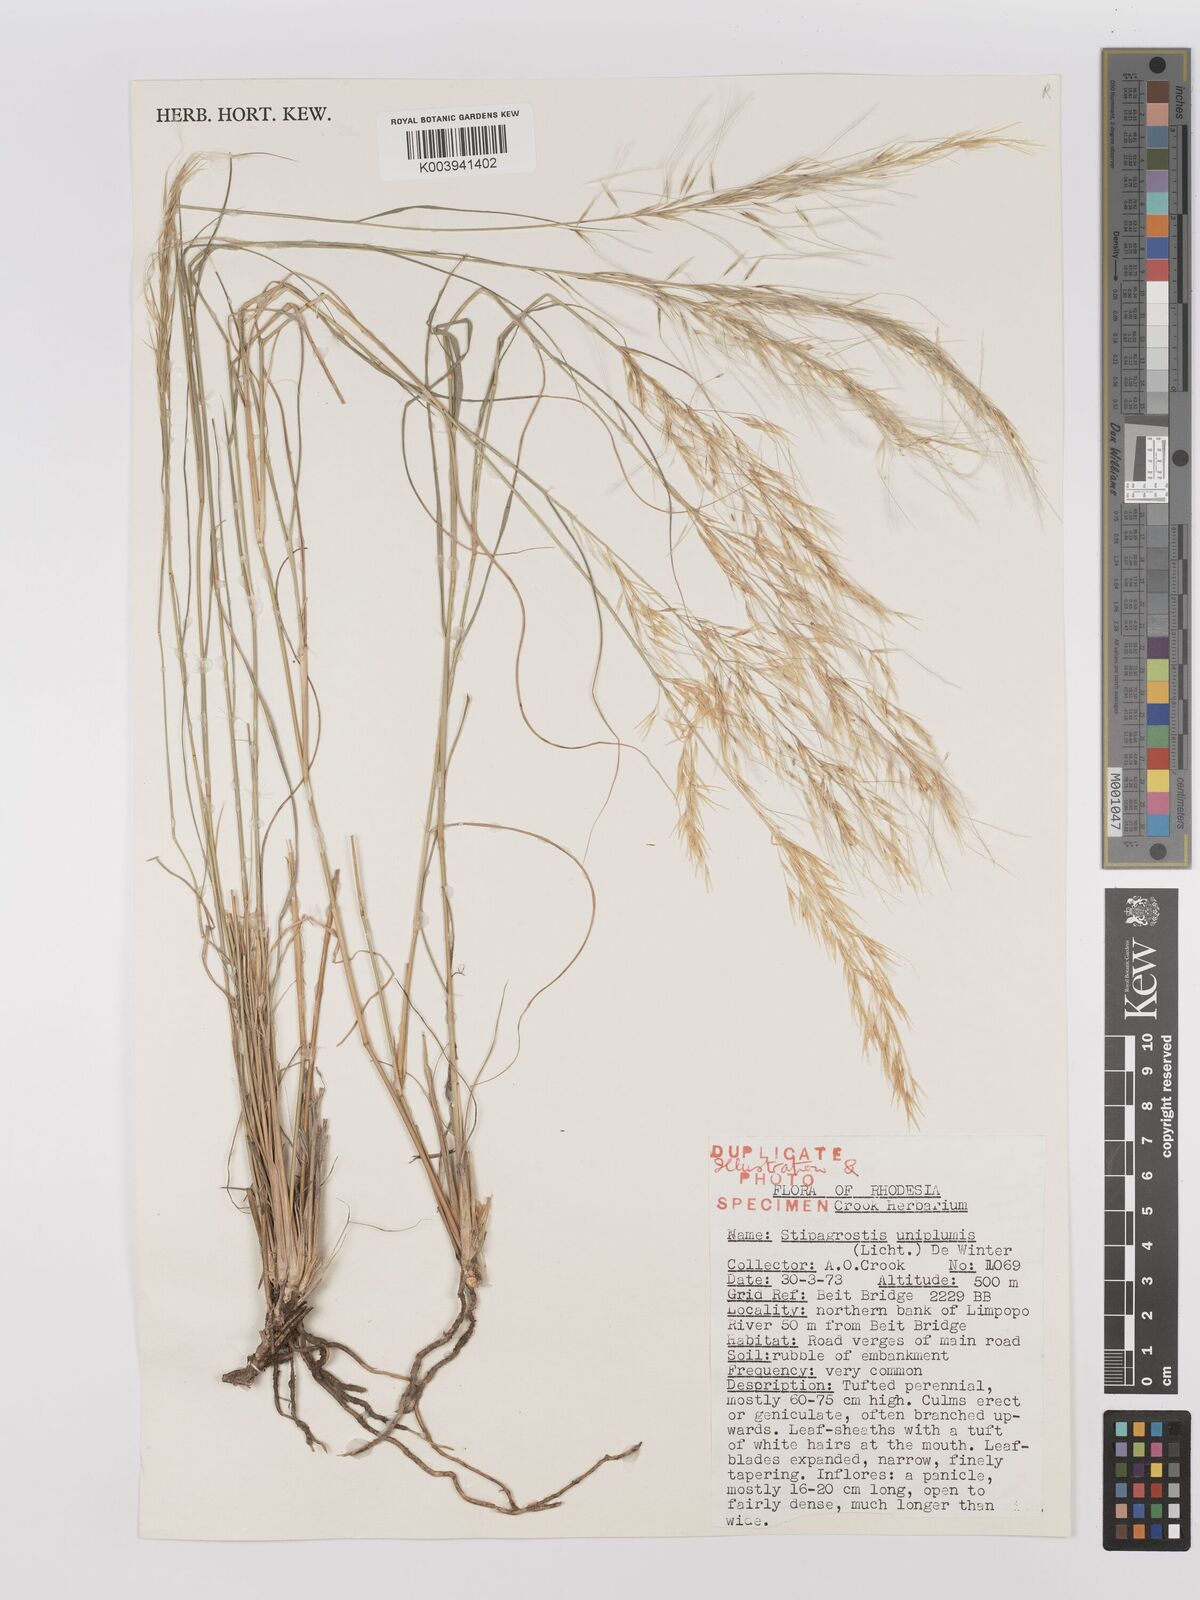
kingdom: Plantae
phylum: Tracheophyta
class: Liliopsida
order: Poales
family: Poaceae
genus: Stipagrostis
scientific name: Stipagrostis uniplumis
